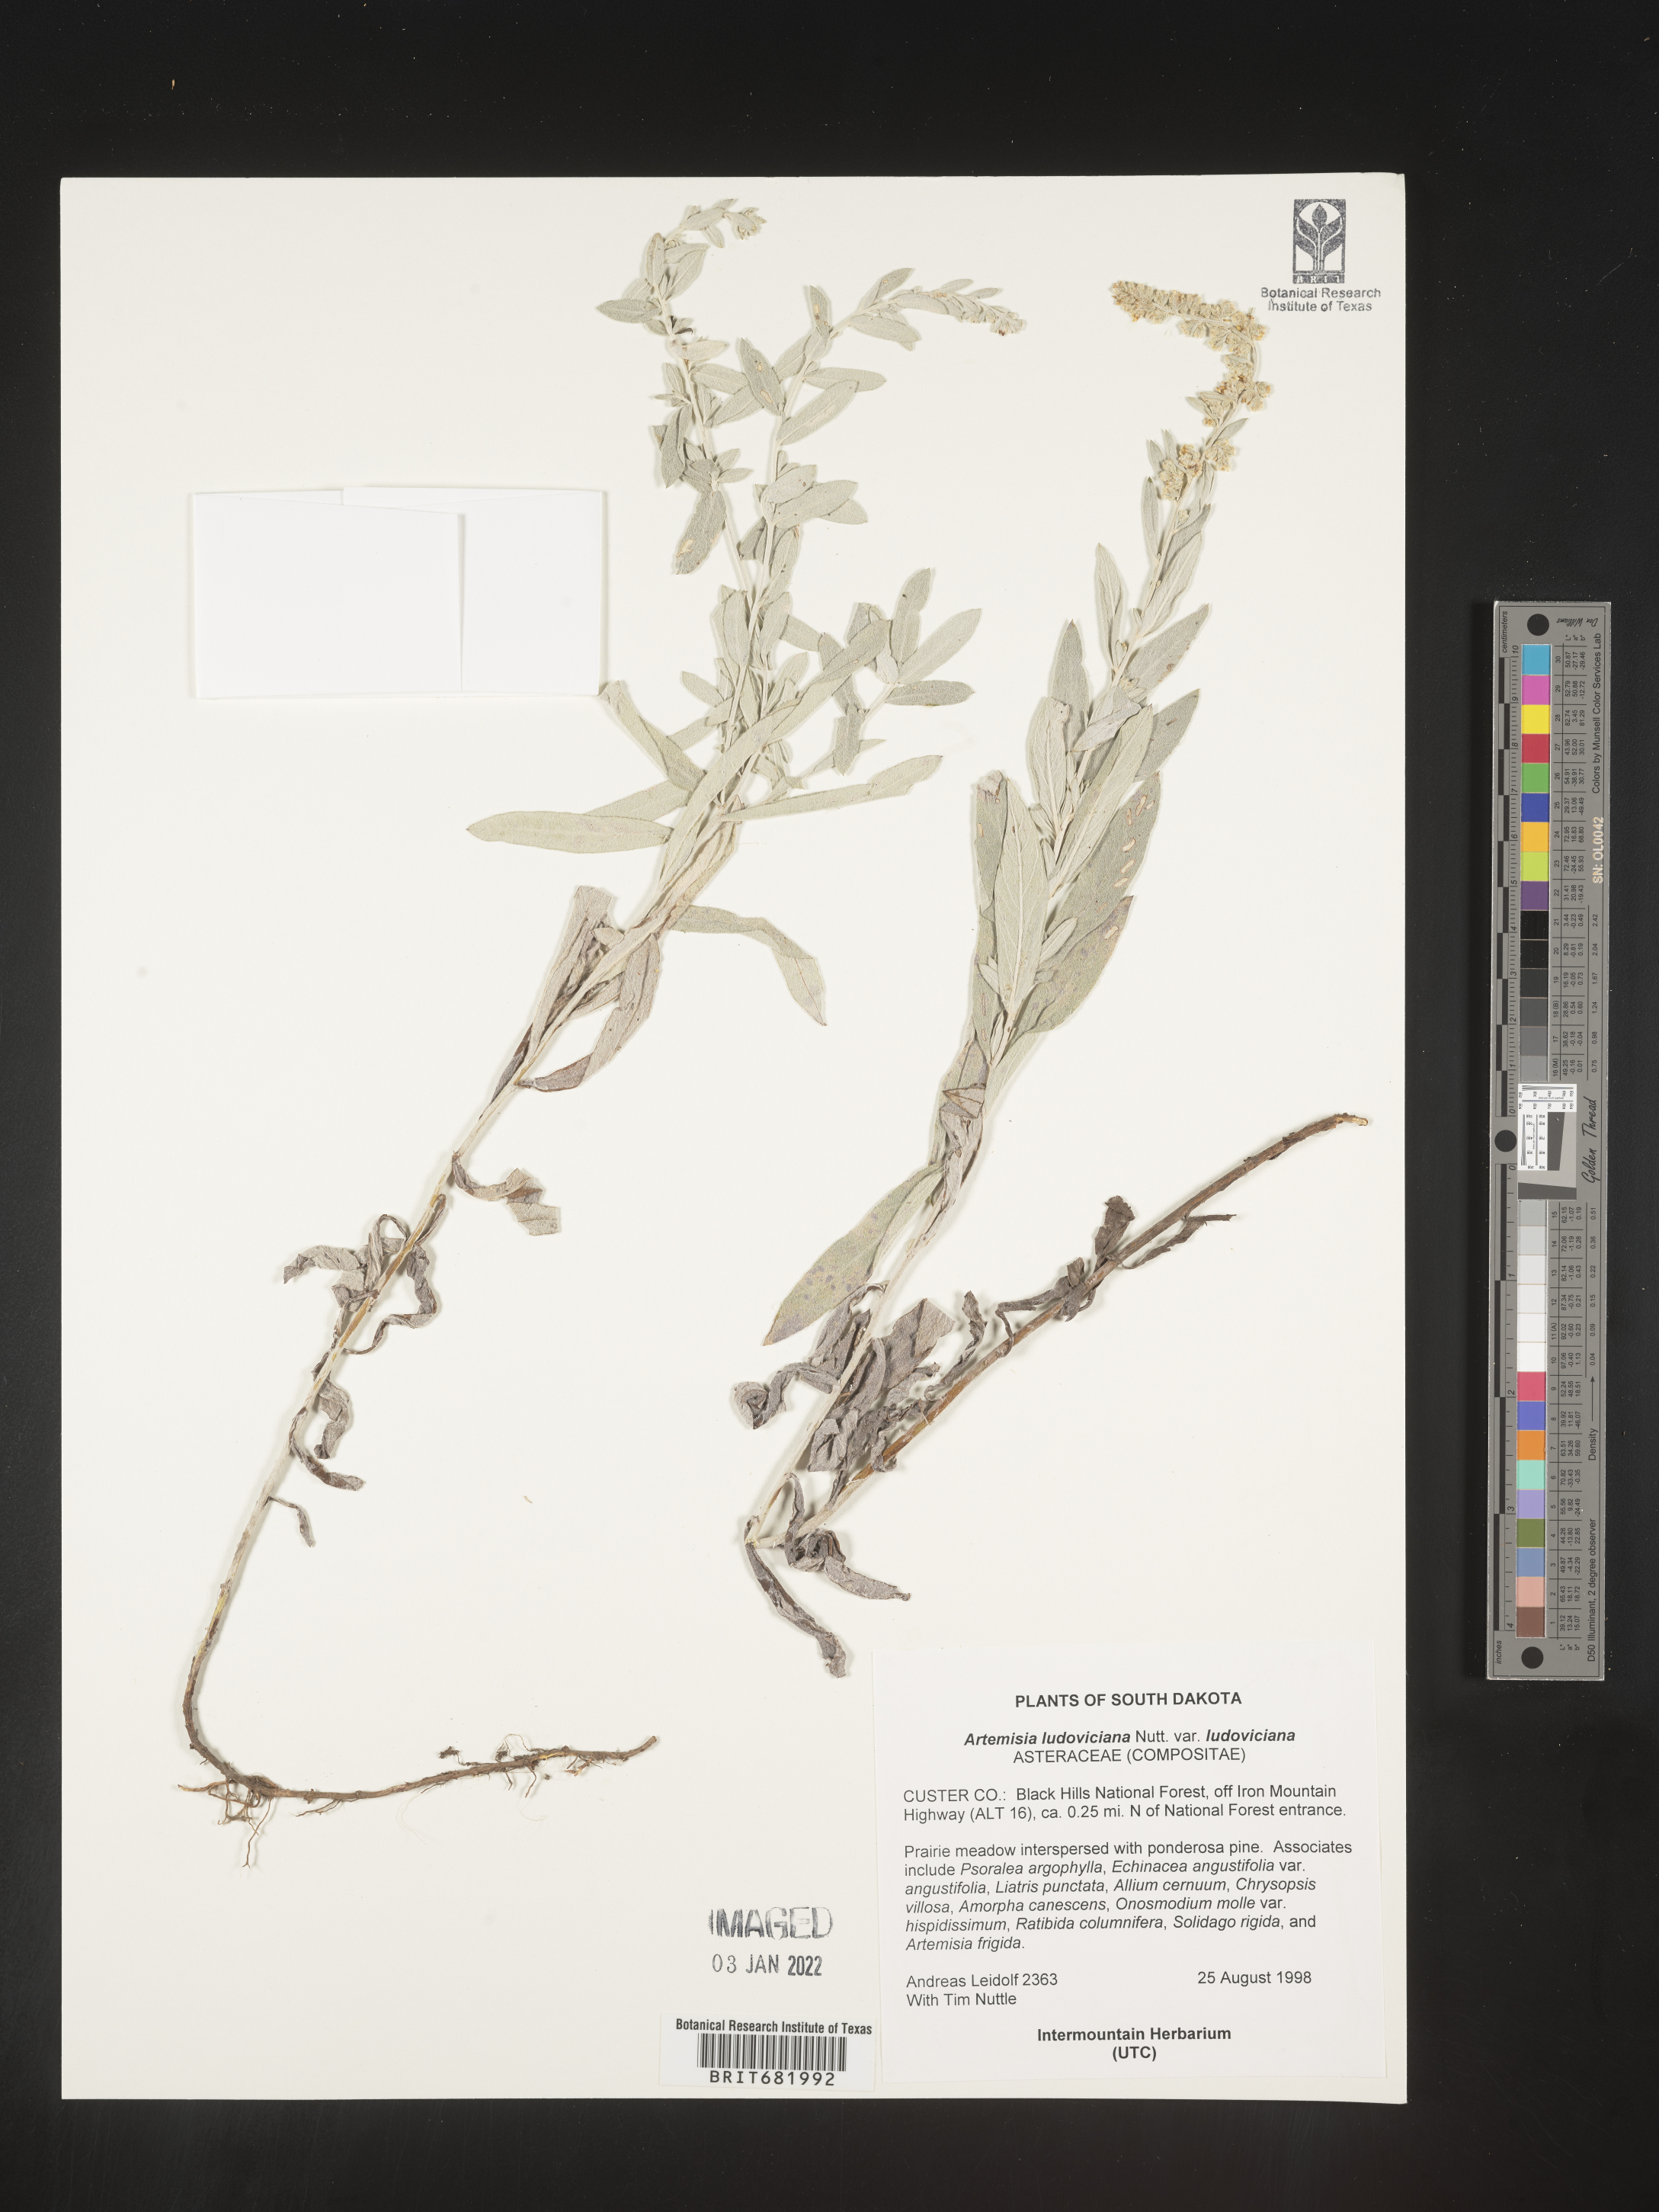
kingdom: Plantae
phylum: Tracheophyta
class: Magnoliopsida
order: Asterales
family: Asteraceae
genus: Artemisia
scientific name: Artemisia ludoviciana
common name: Western mugwort
